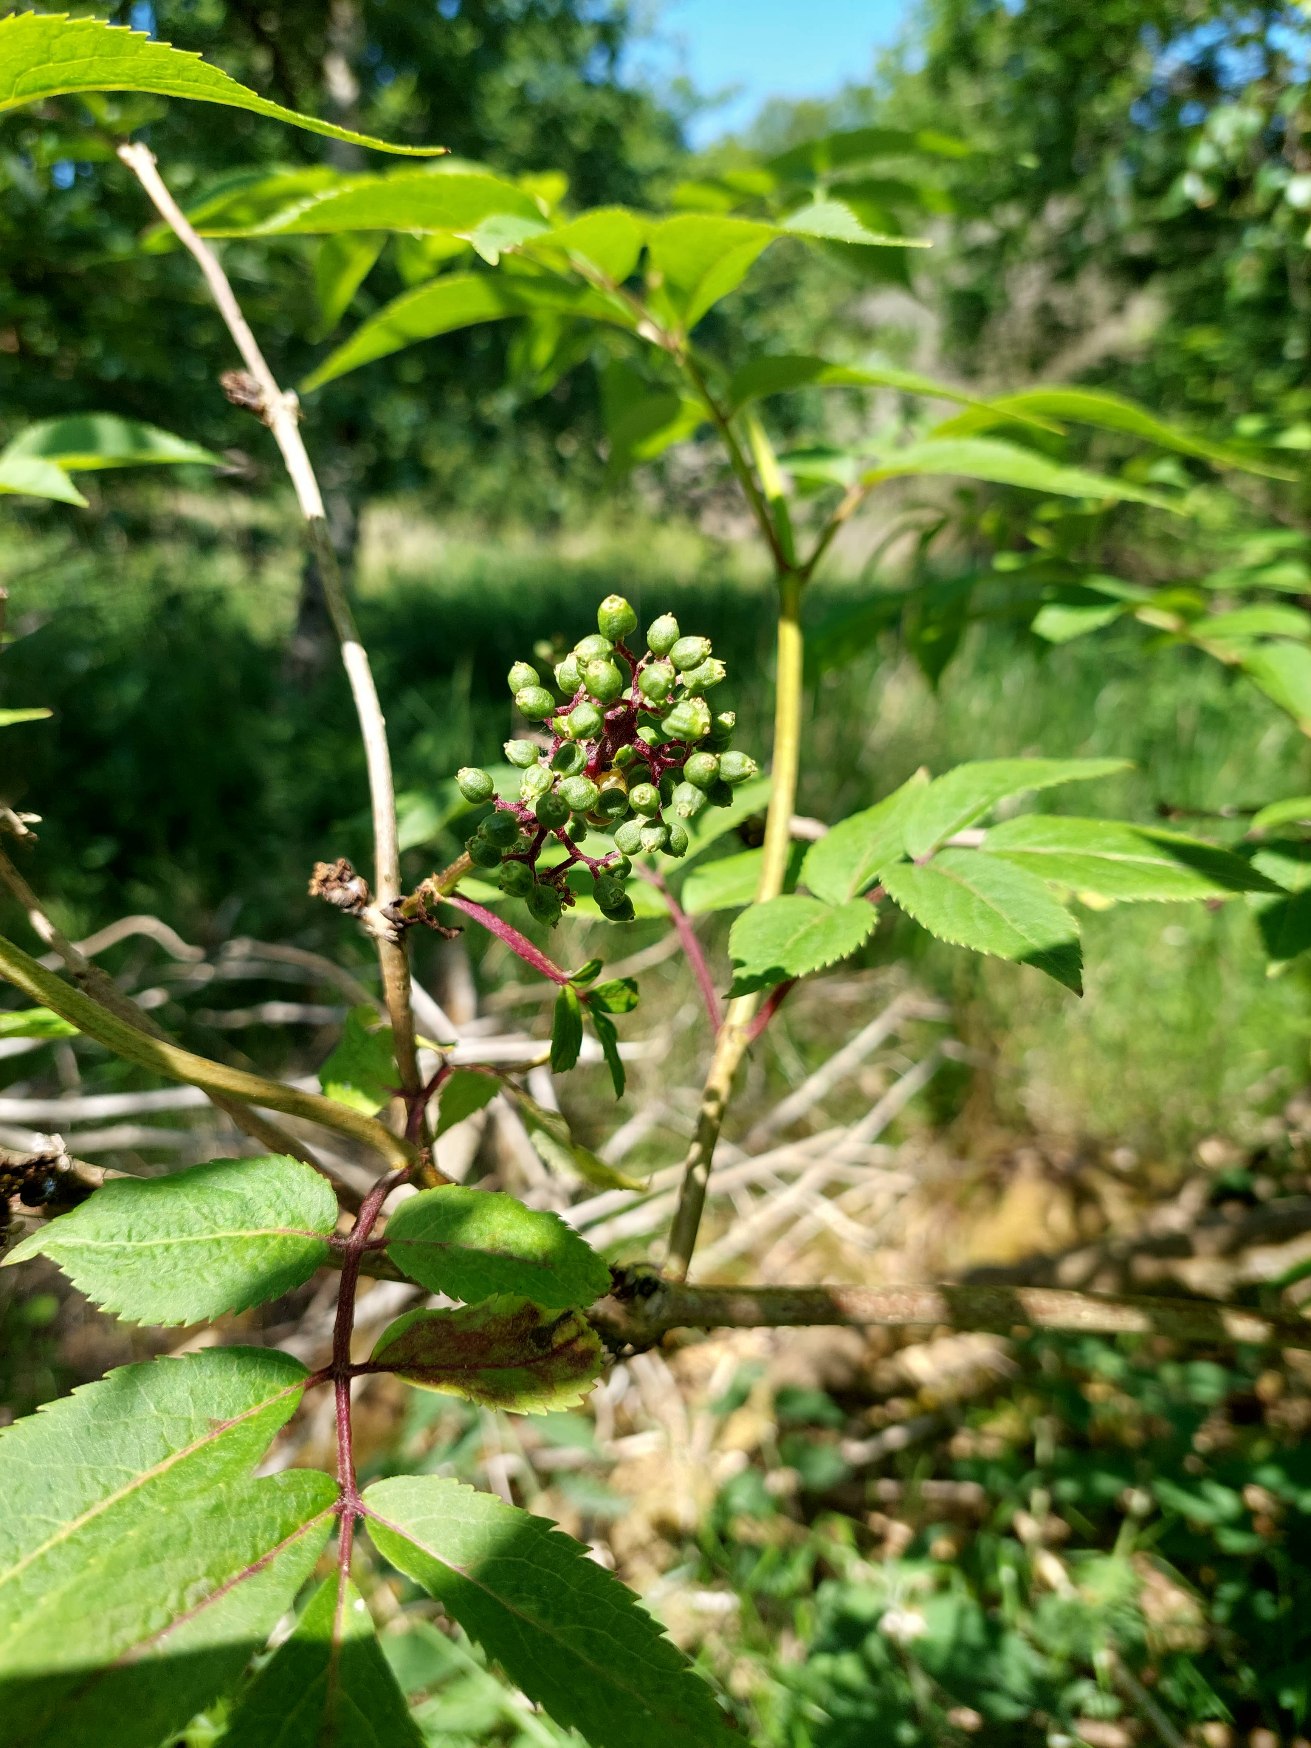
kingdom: Plantae
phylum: Tracheophyta
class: Magnoliopsida
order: Dipsacales
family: Viburnaceae
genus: Sambucus
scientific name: Sambucus racemosa
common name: Drue-hyld
